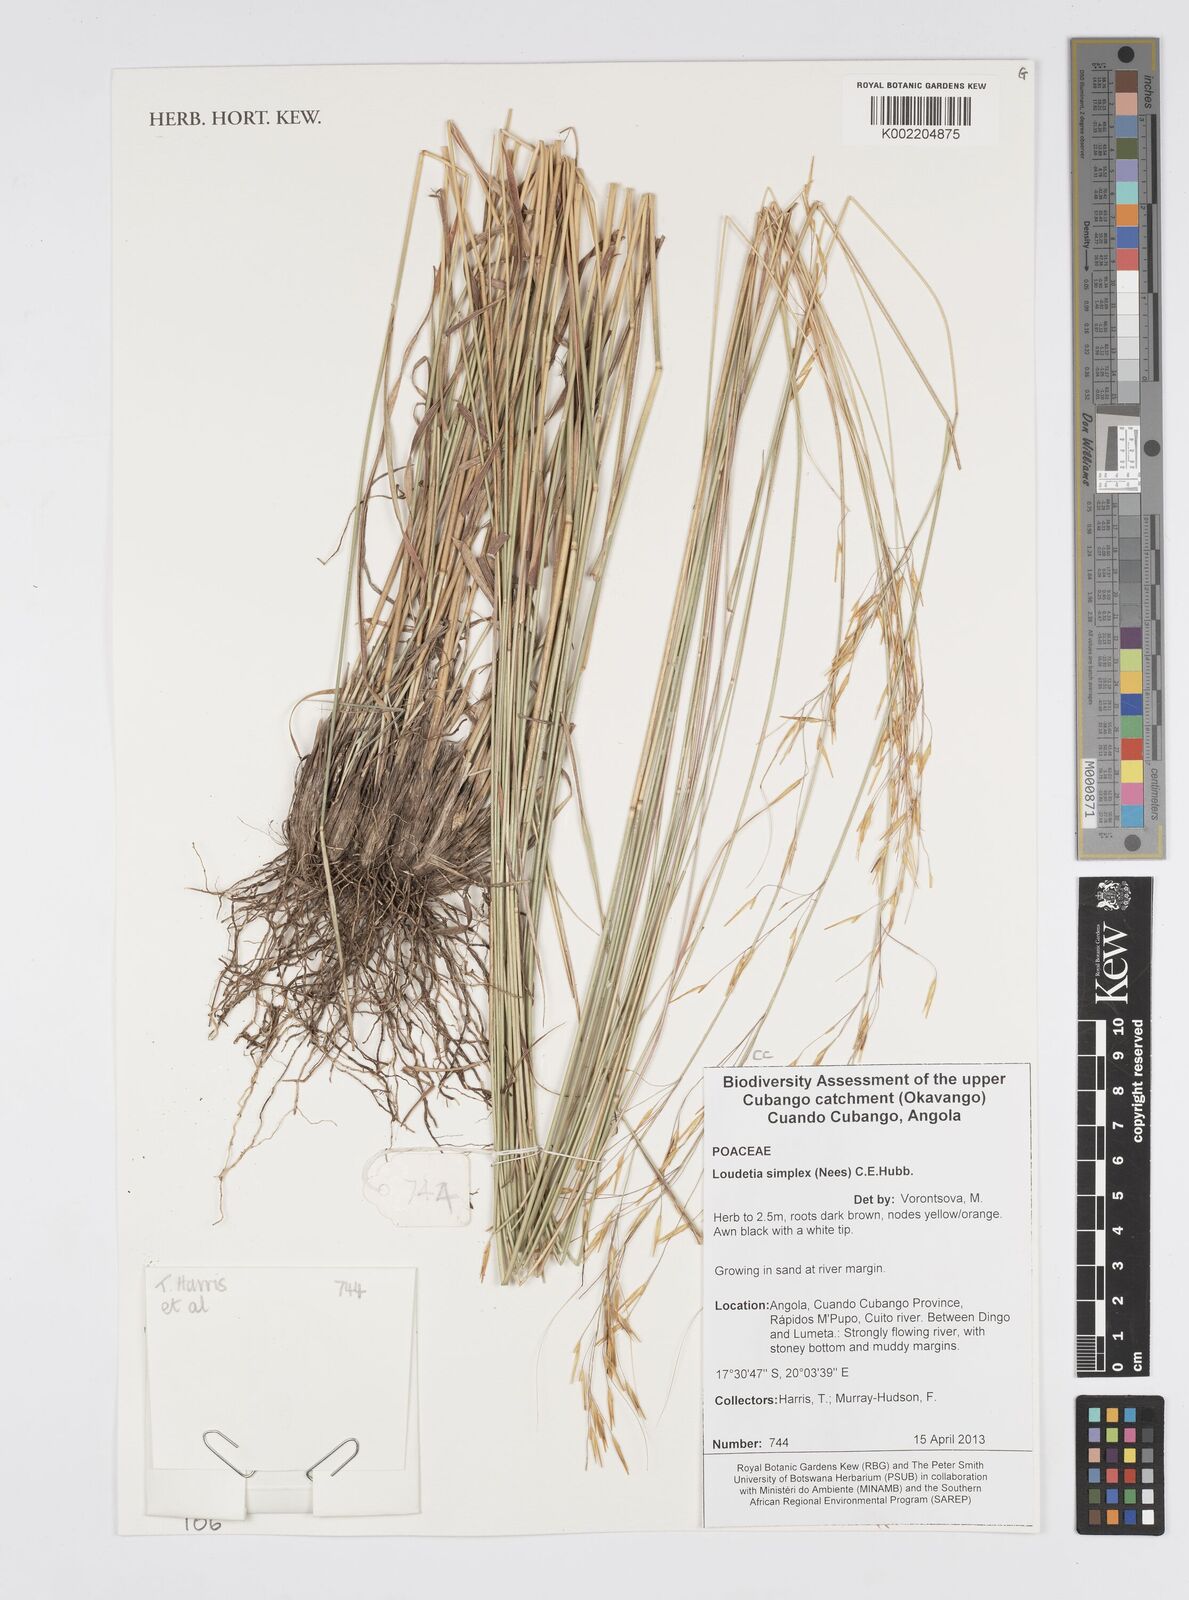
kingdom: Plantae
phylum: Tracheophyta
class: Liliopsida
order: Poales
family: Poaceae
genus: Loudetia
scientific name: Loudetia simplex
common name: Common russet grass
